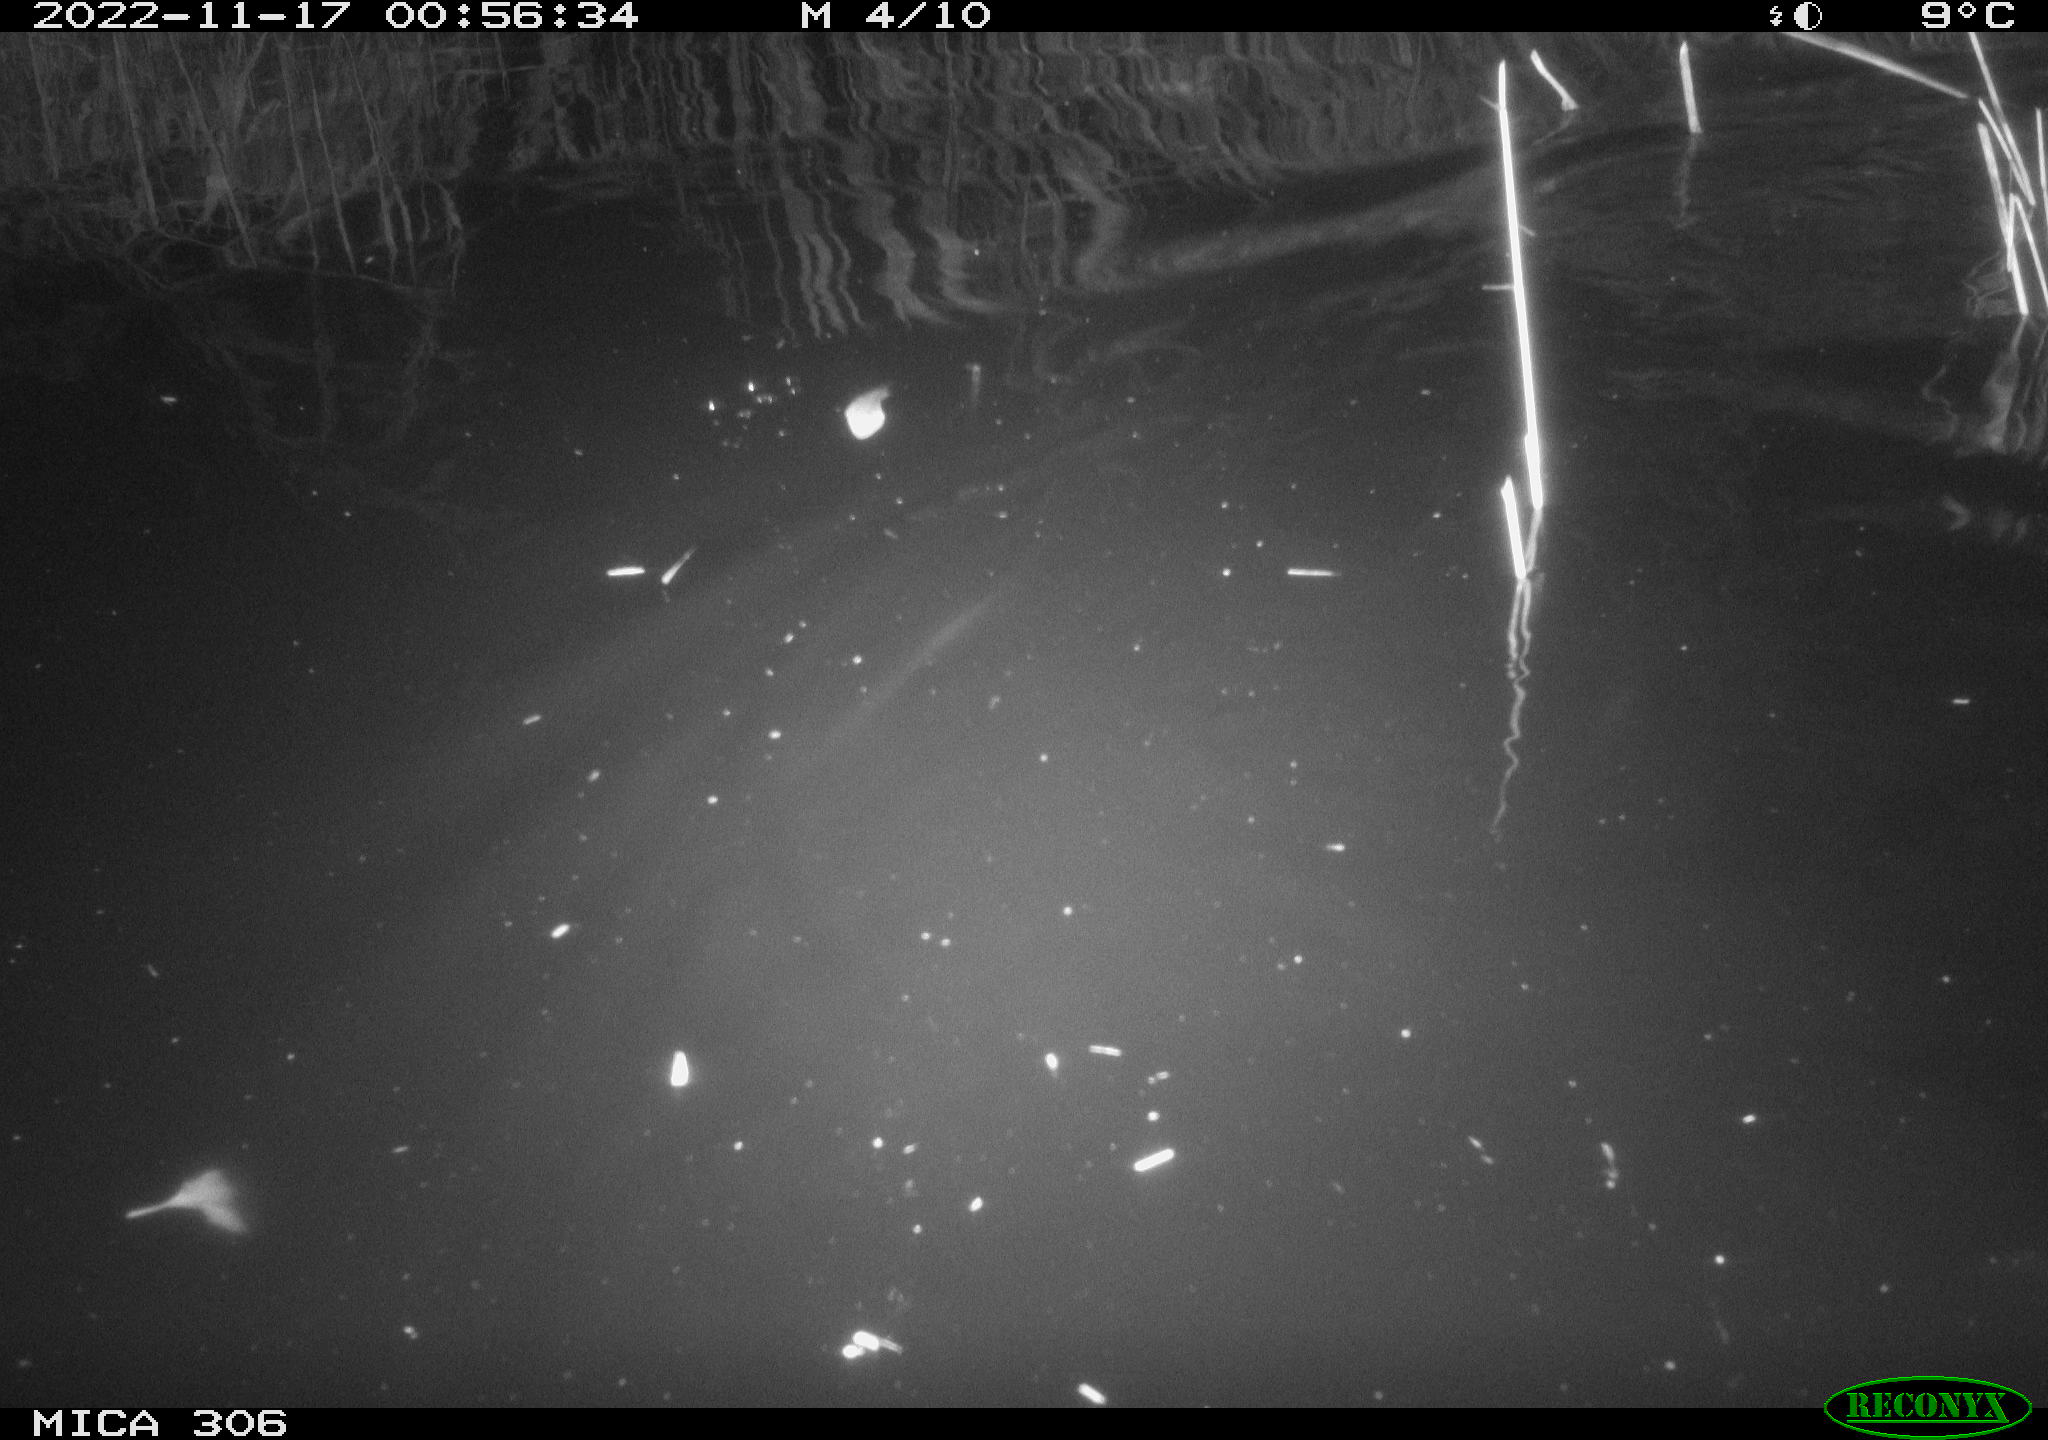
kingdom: Animalia
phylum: Chordata
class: Mammalia
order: Rodentia
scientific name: Rodentia
